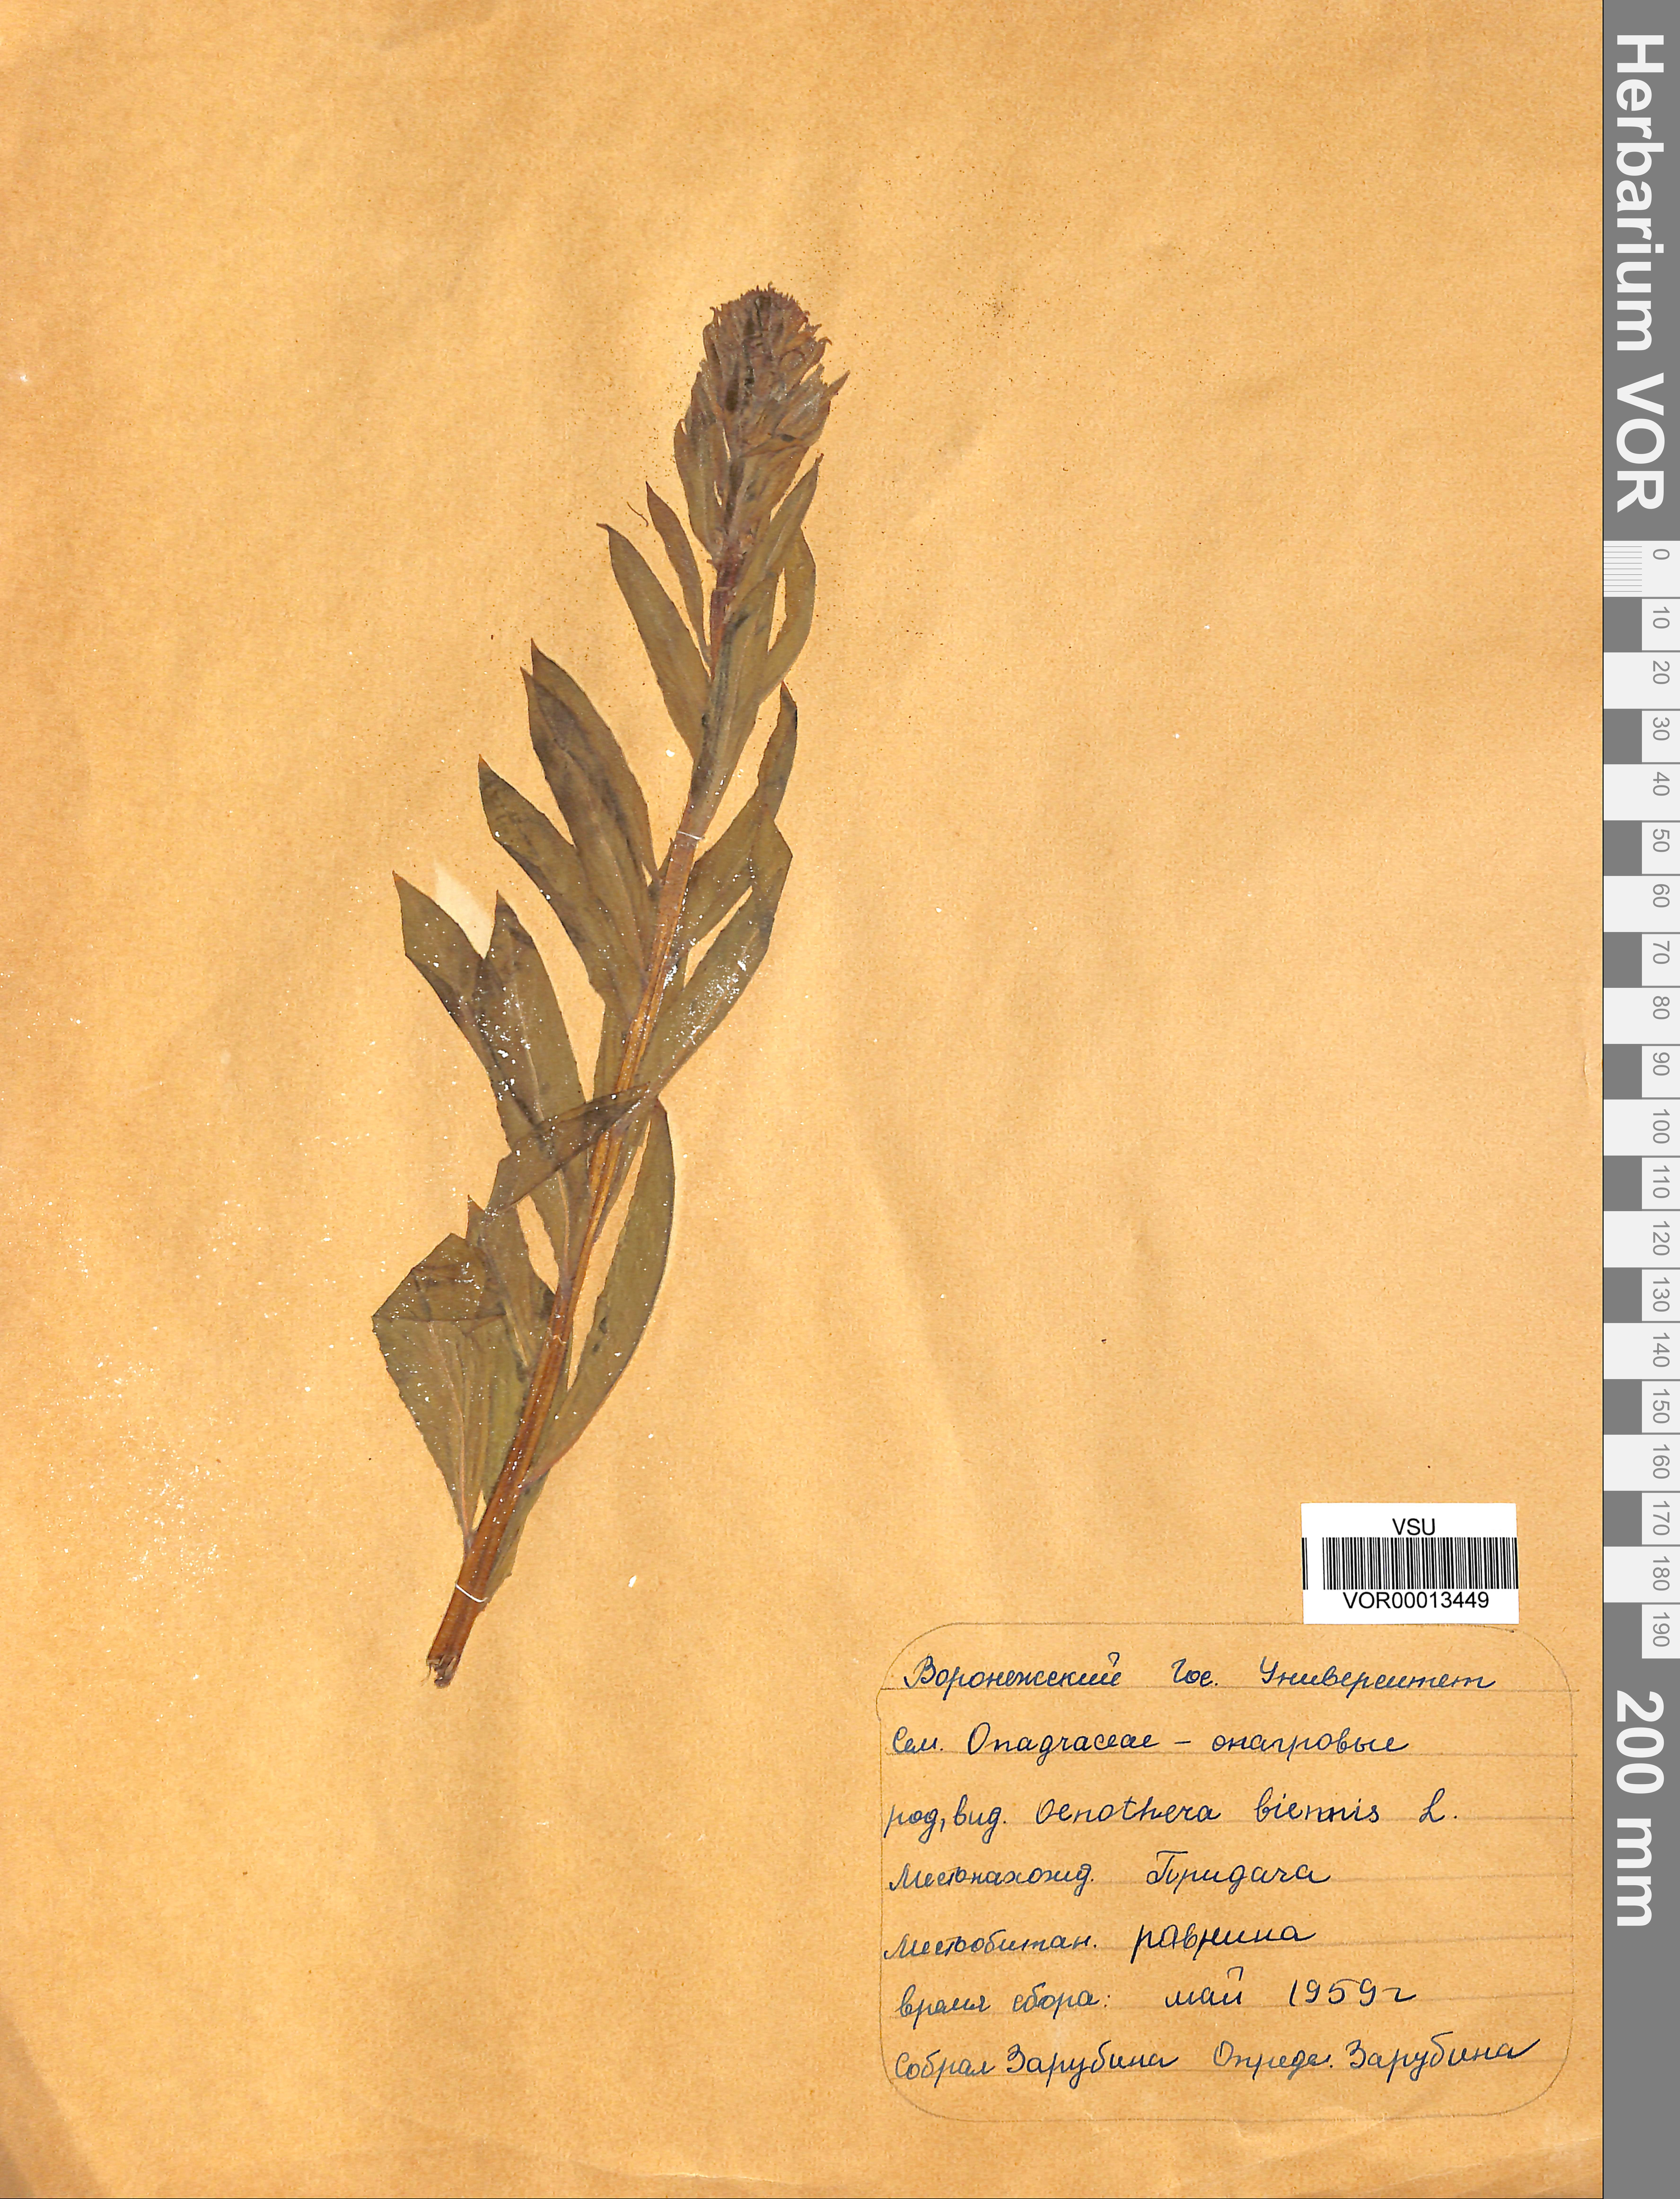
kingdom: Plantae
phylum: Tracheophyta
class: Magnoliopsida
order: Myrtales
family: Onagraceae
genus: Oenothera
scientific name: Oenothera biennis
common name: Common evening-primrose
